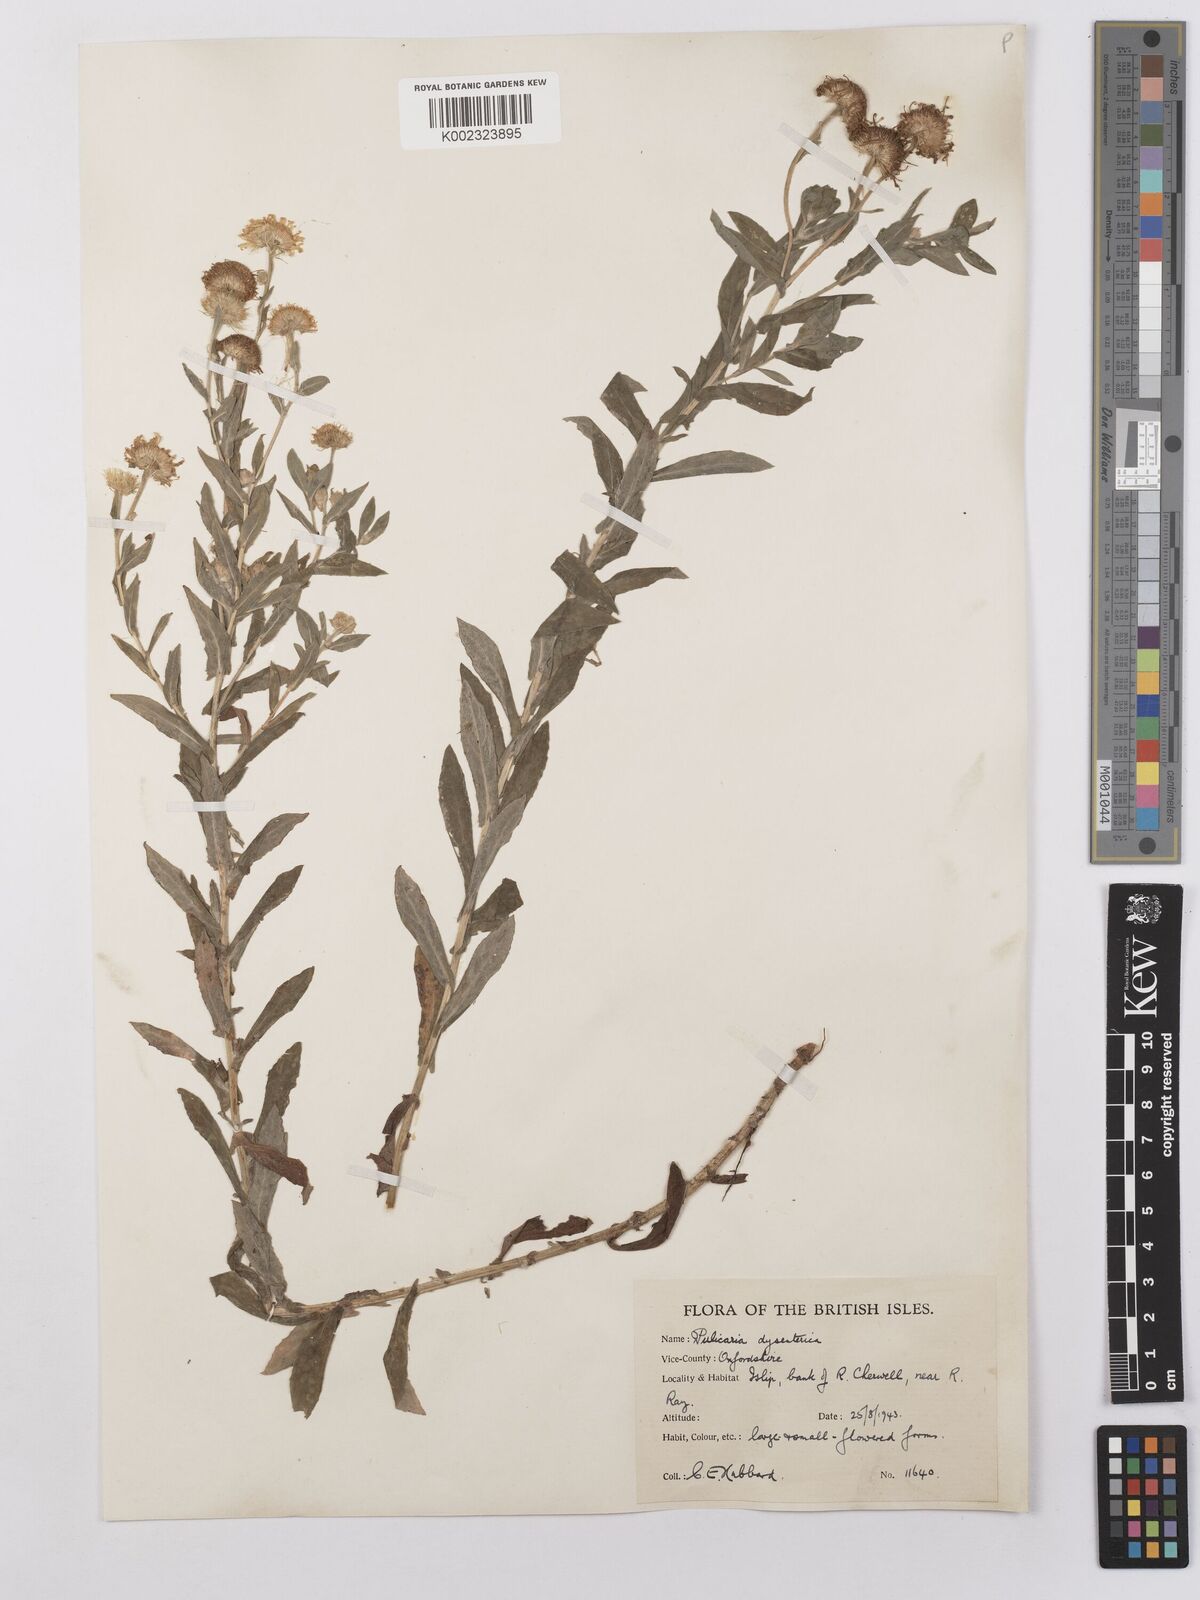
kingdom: Plantae
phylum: Tracheophyta
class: Magnoliopsida
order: Asterales
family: Asteraceae
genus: Pulicaria
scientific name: Pulicaria dysenterica
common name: Common fleabane
